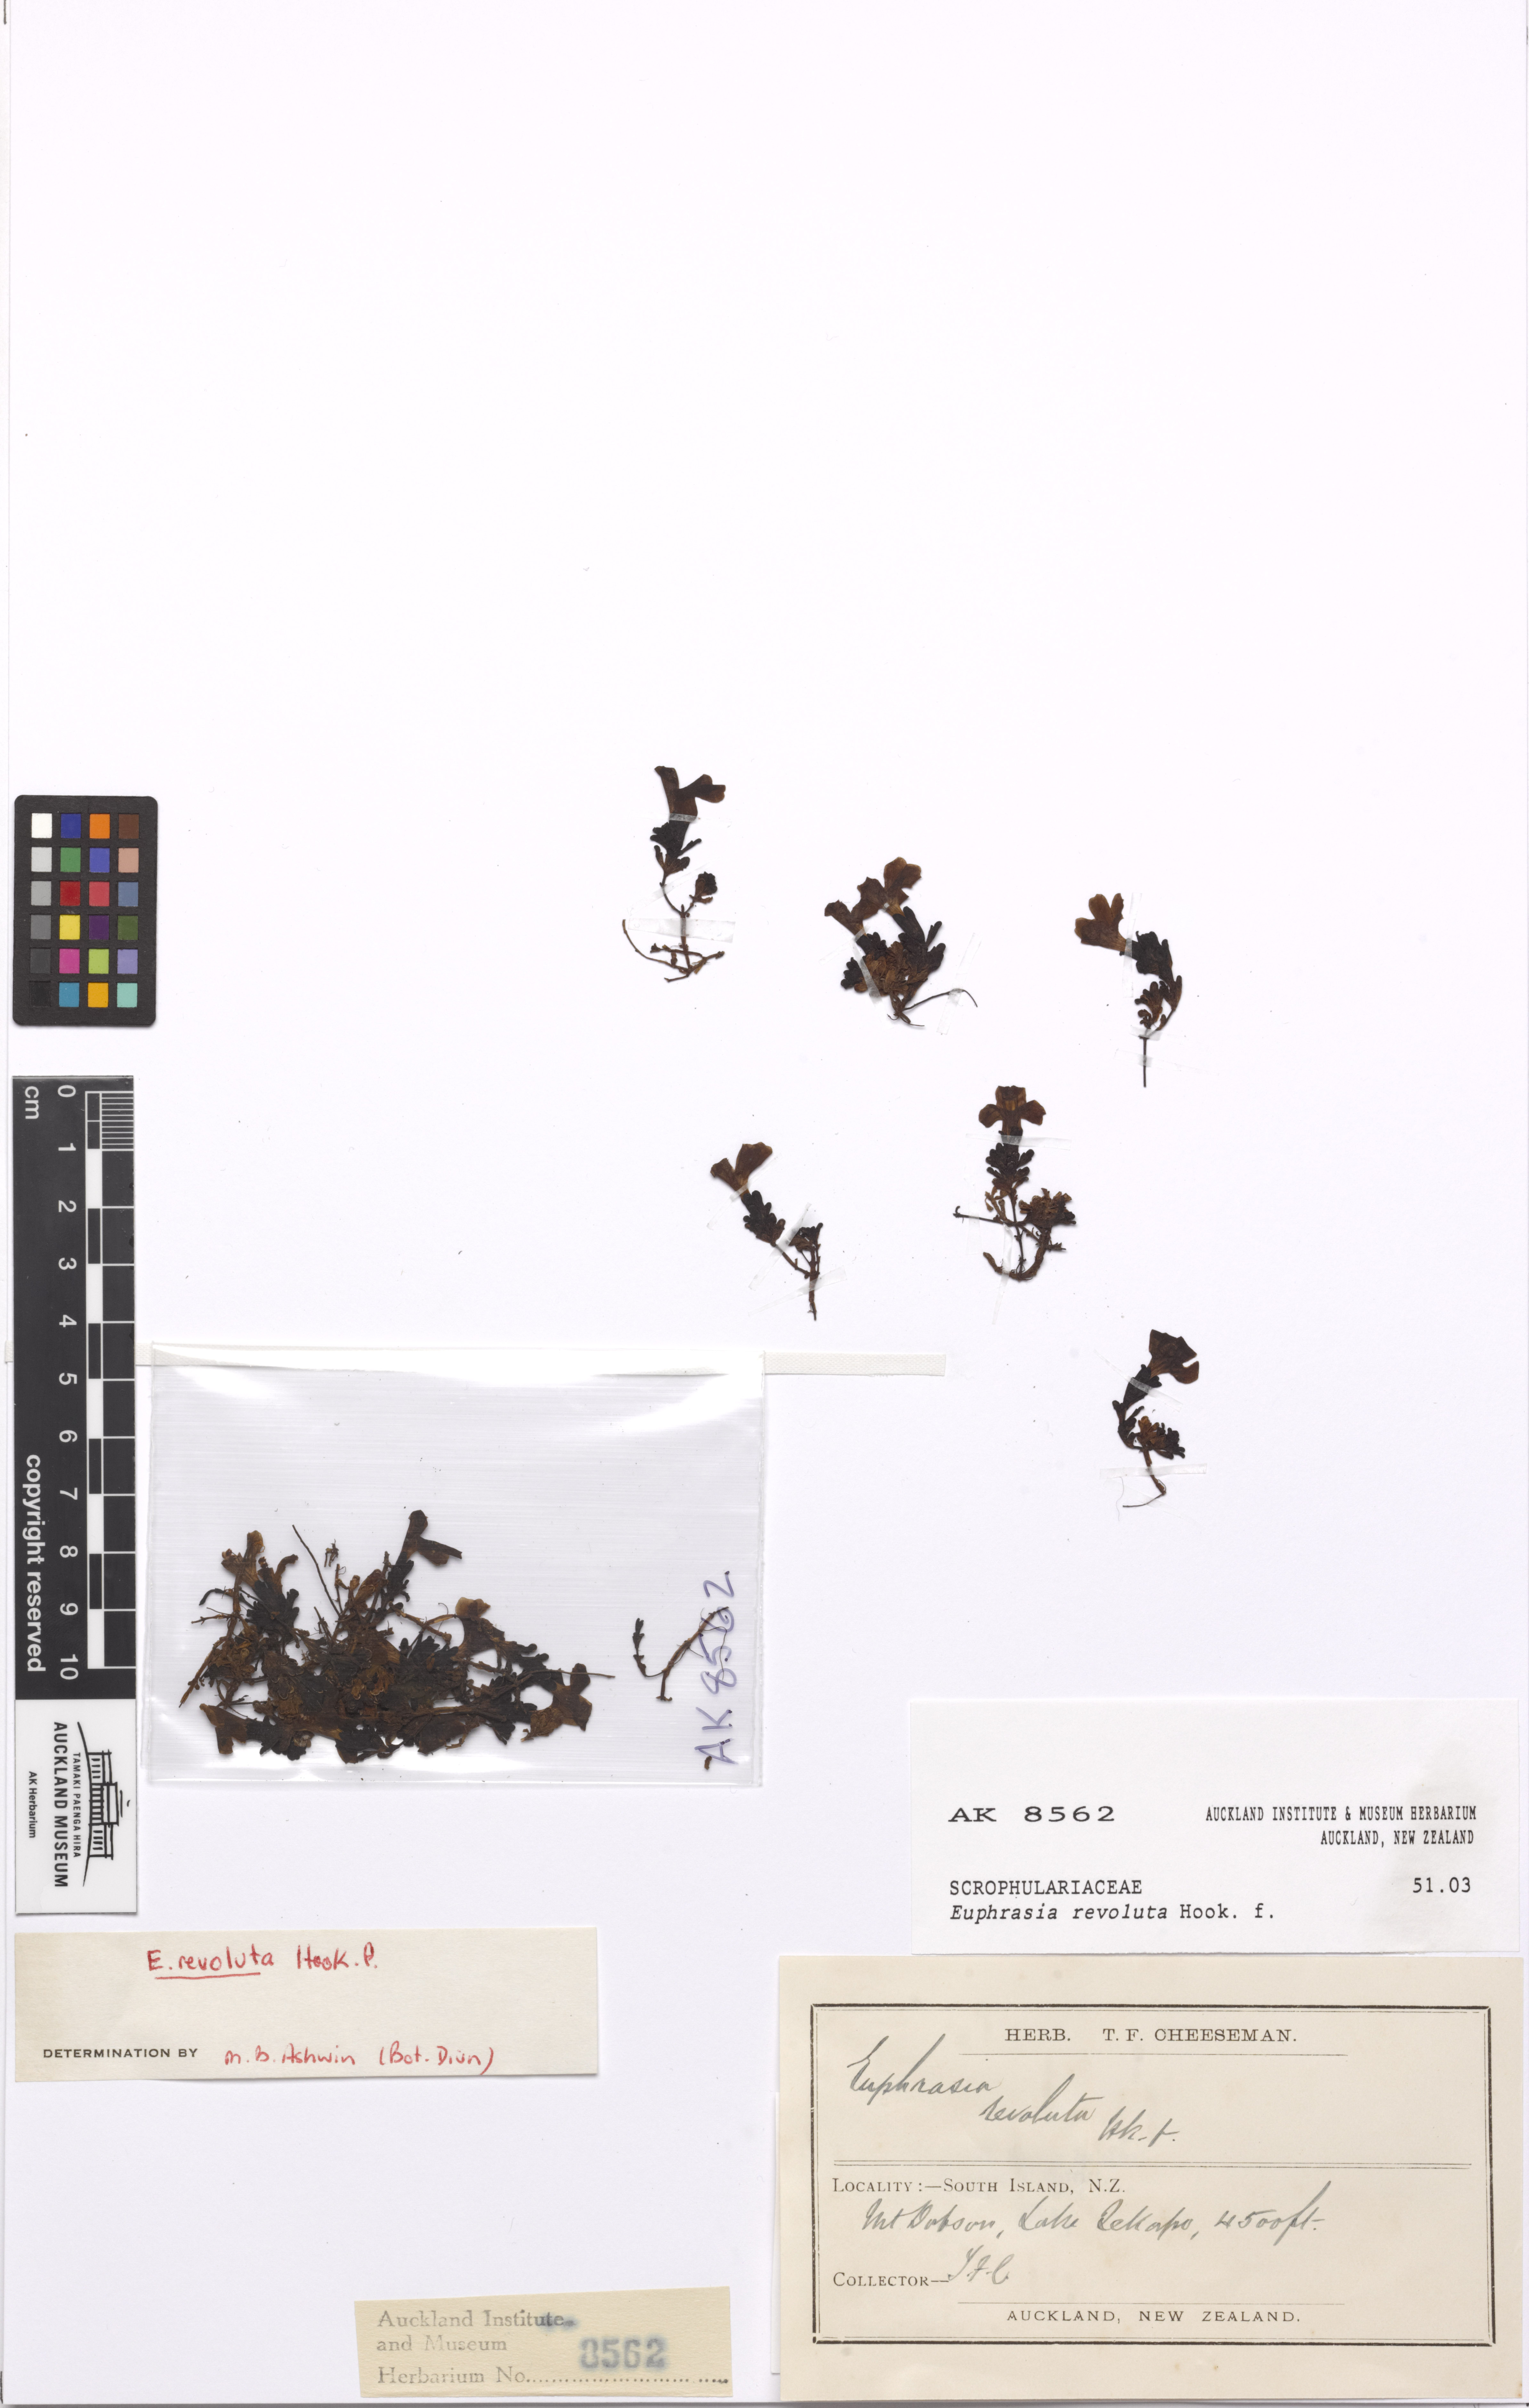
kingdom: Plantae
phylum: Tracheophyta
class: Magnoliopsida
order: Lamiales
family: Orobanchaceae
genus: Euphrasia
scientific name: Euphrasia revoluta
